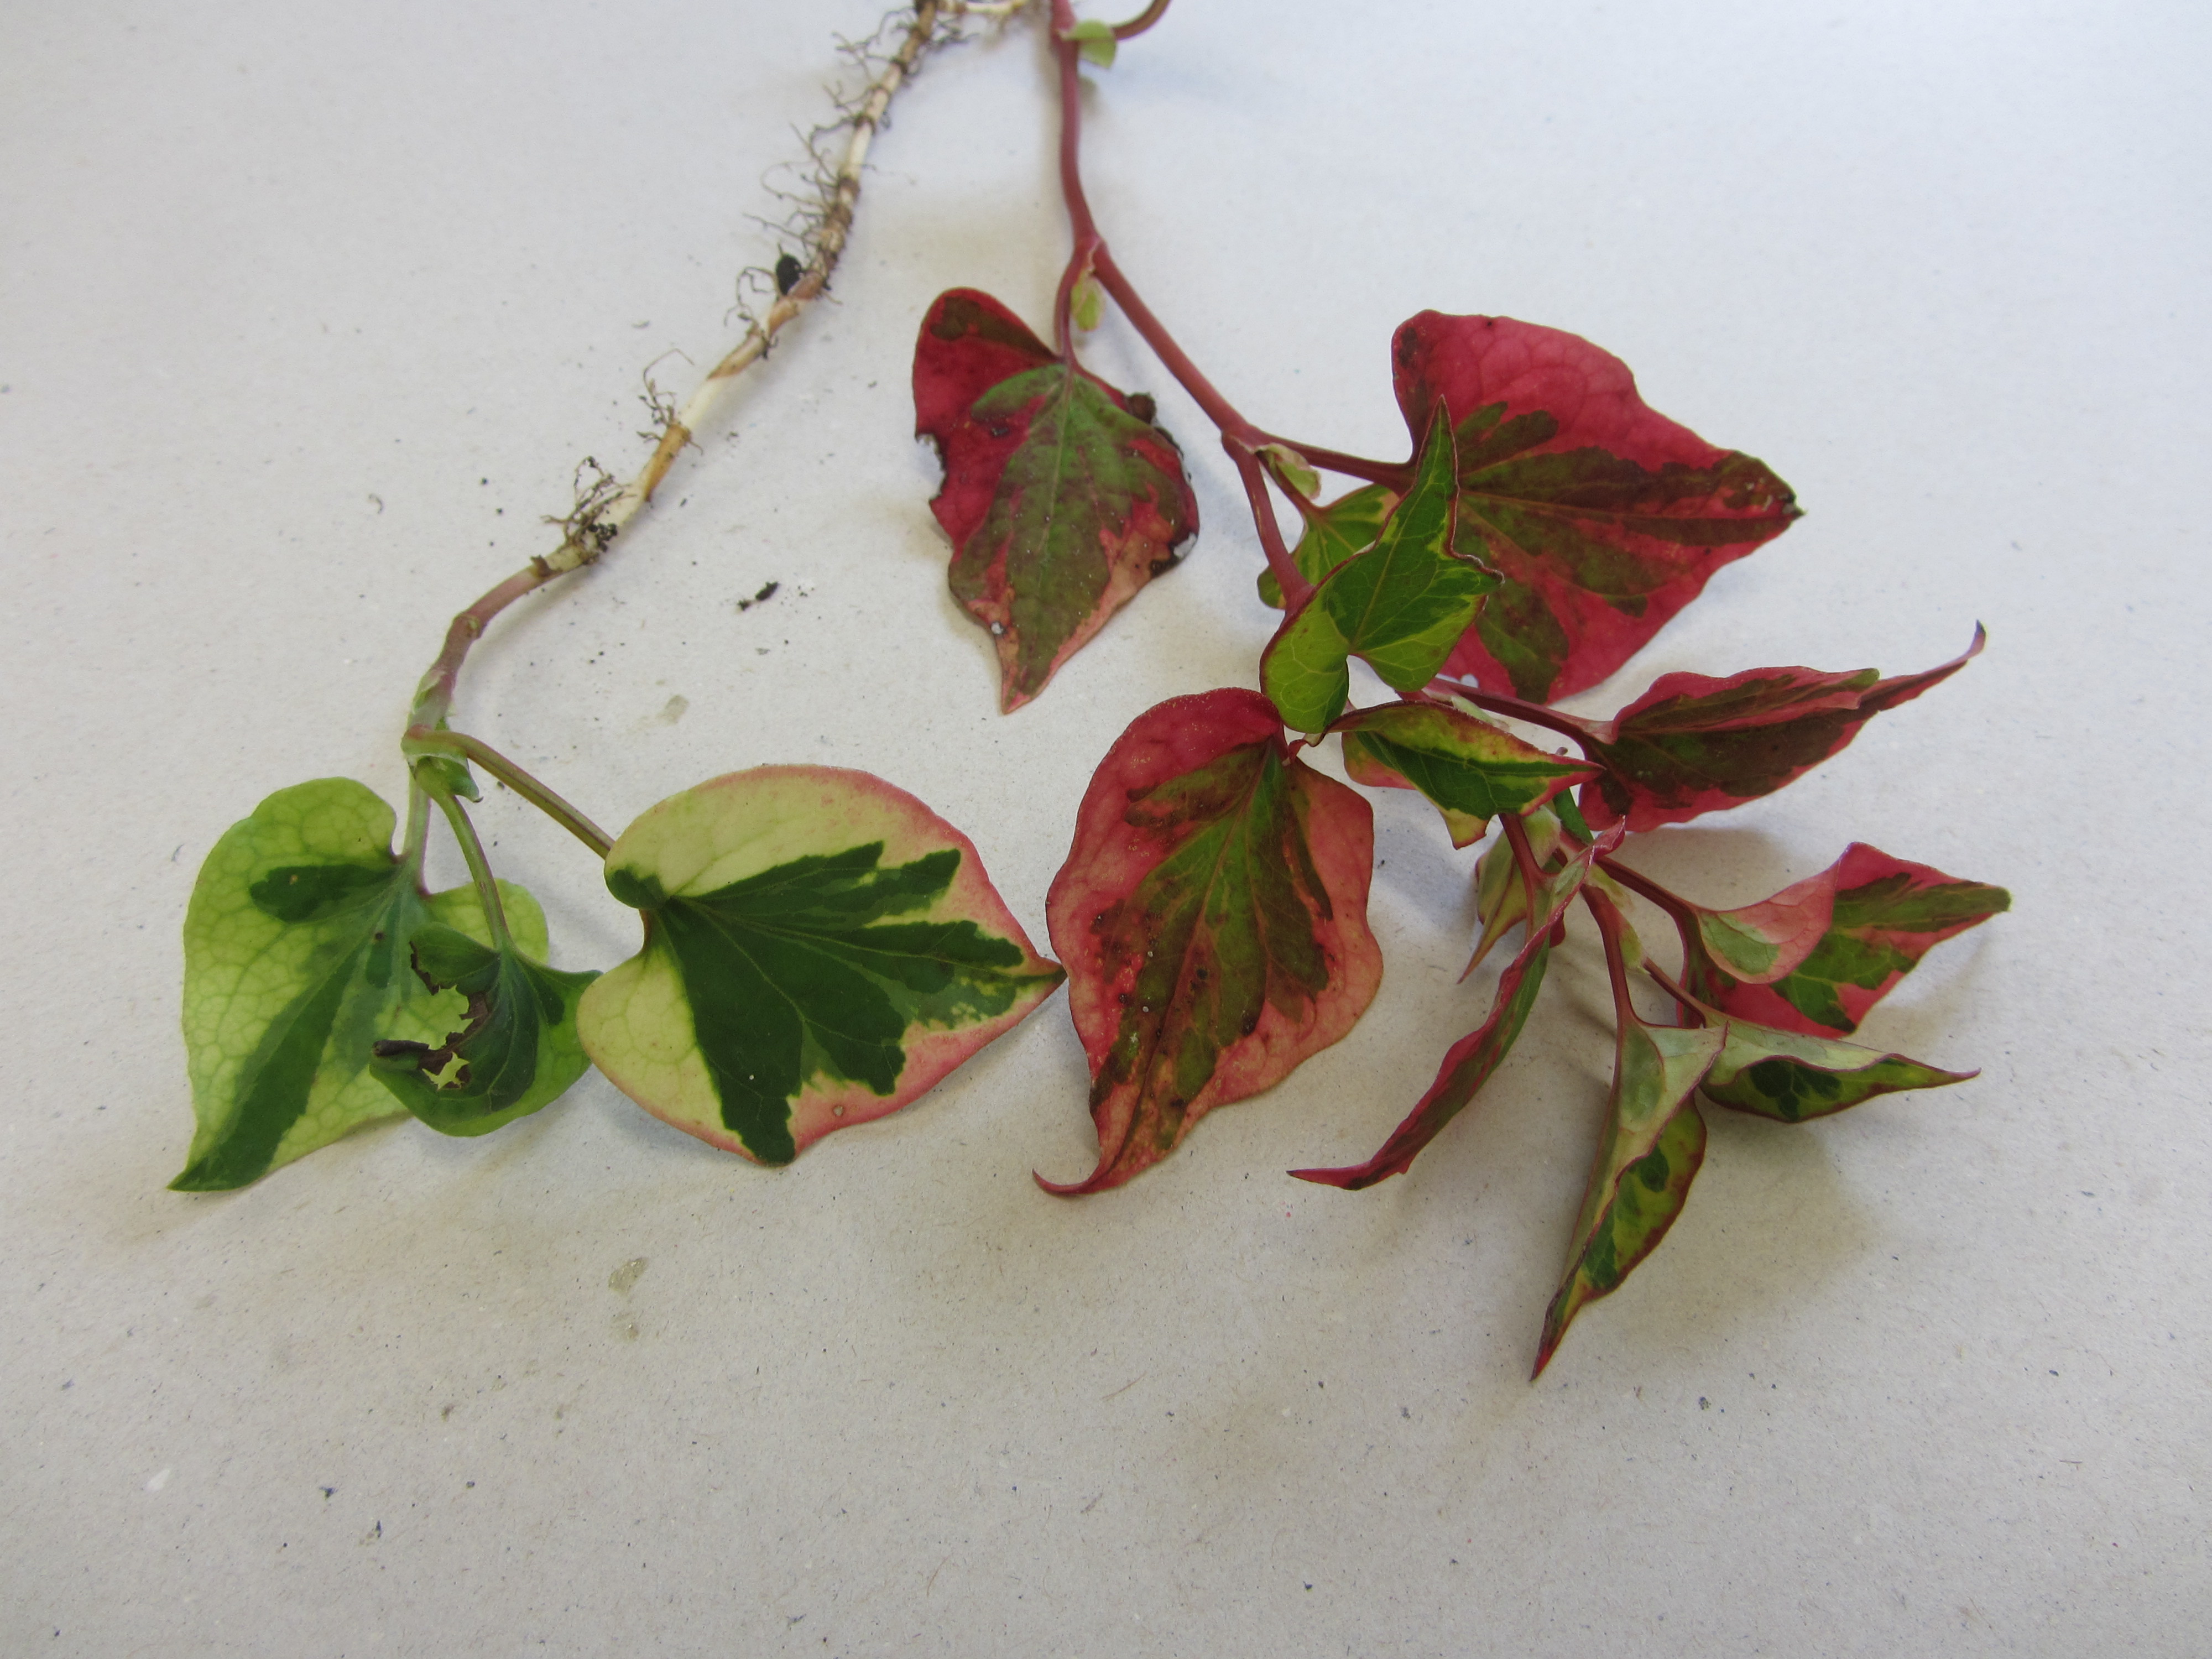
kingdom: Plantae
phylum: Tracheophyta
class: Magnoliopsida
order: Piperales
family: Saururaceae
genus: Houttuynia
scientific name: Houttuynia cordata
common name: Chameleon
